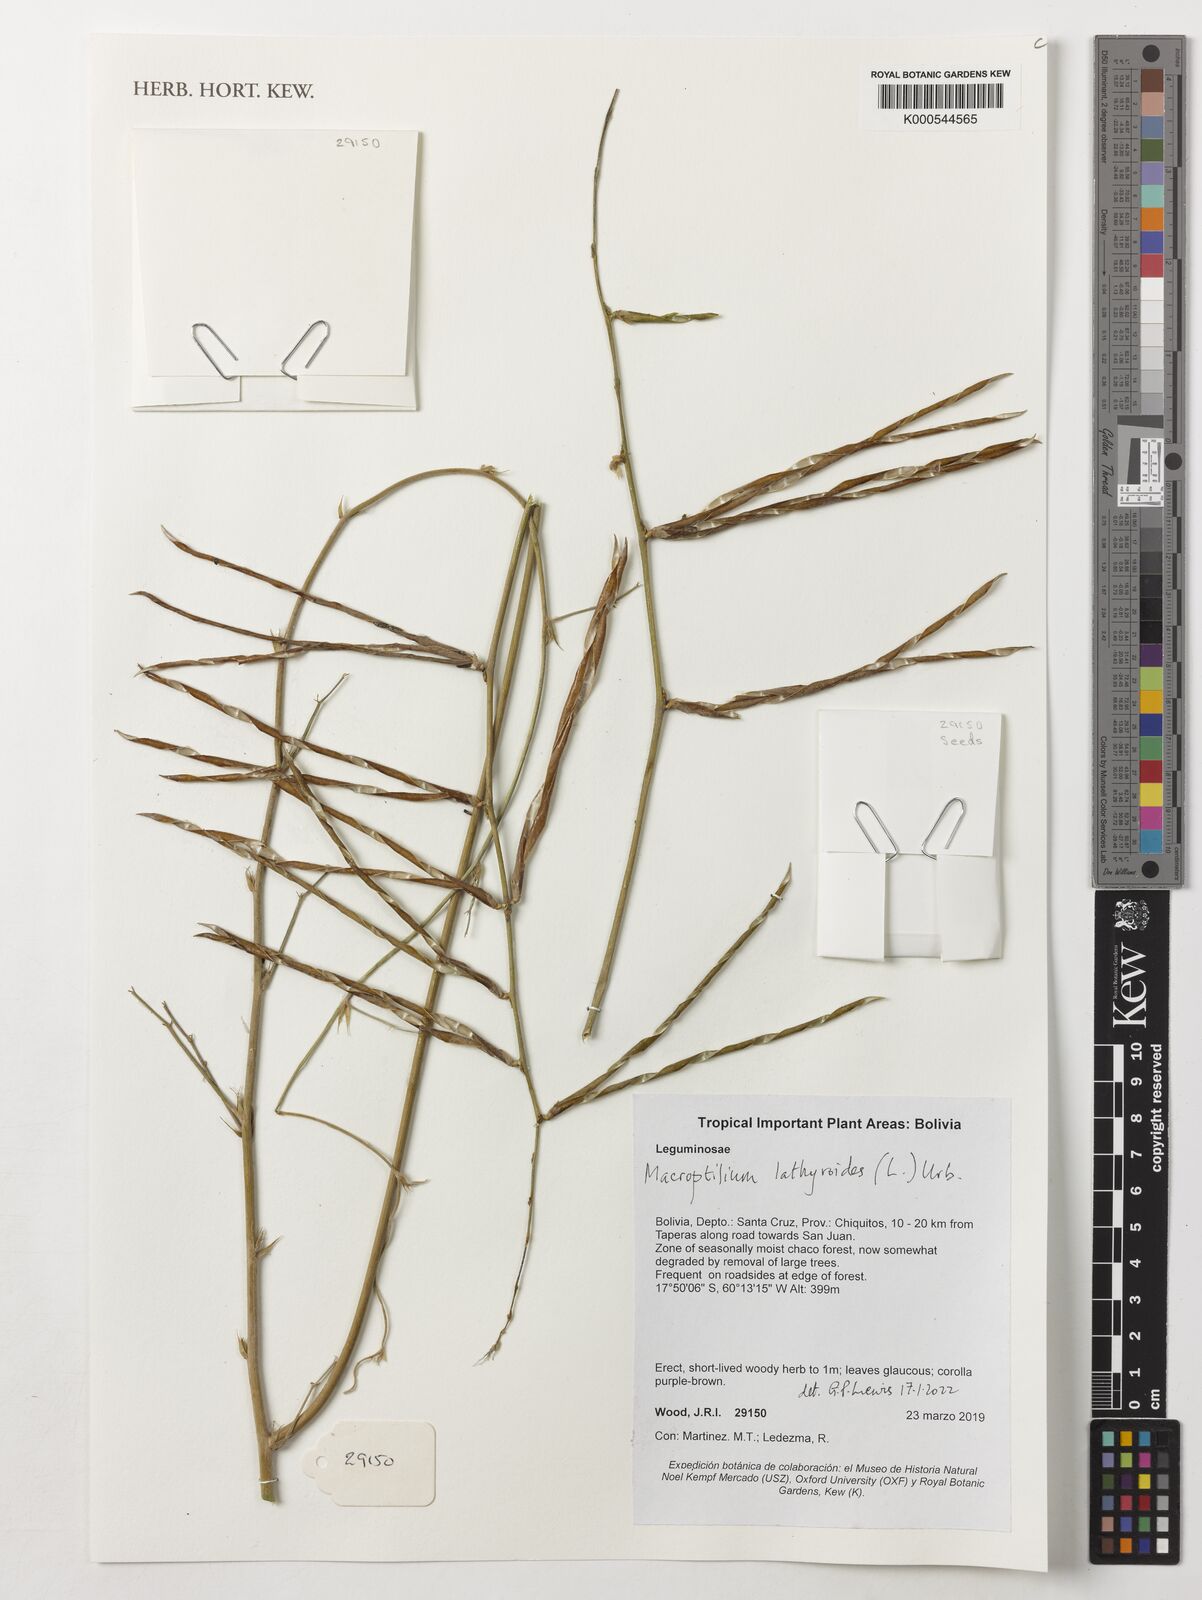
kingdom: Plantae
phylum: Tracheophyta
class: Magnoliopsida
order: Fabales
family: Fabaceae
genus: Macroptilium
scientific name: Macroptilium lathyroides
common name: Wild bushbean
